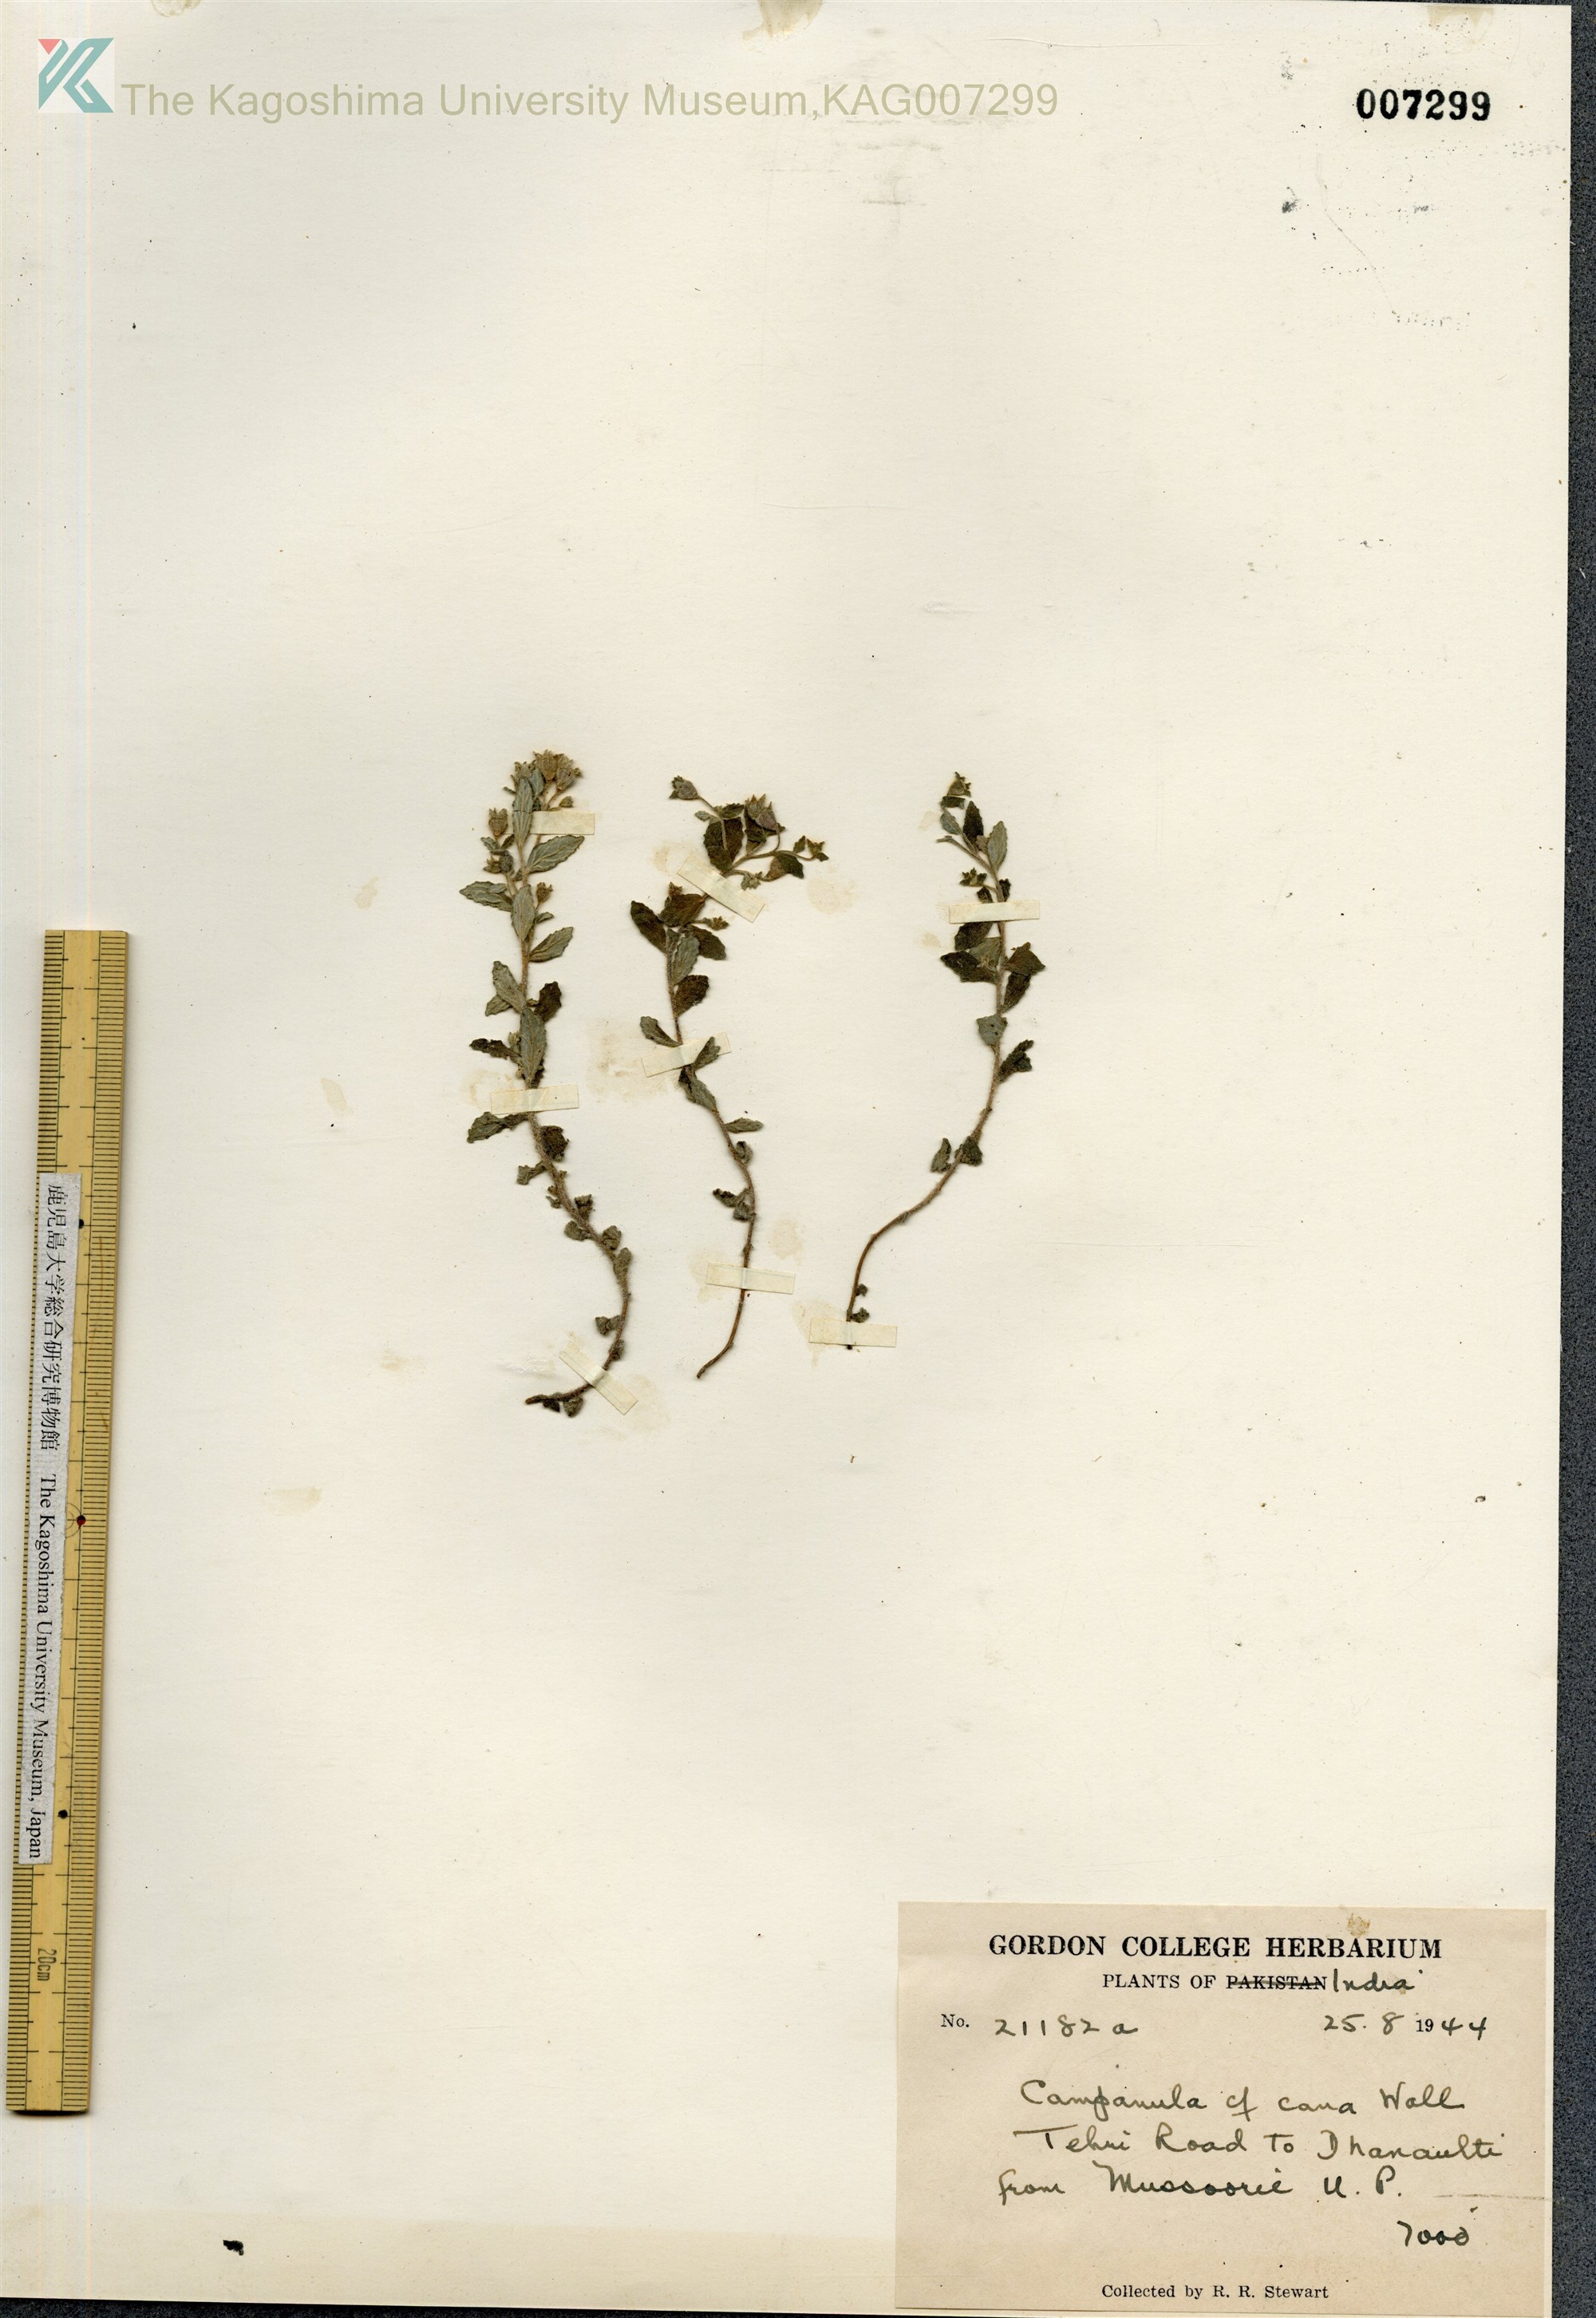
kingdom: Plantae
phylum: Tracheophyta
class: Magnoliopsida
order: Asterales
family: Campanulaceae
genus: Campanula
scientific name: Campanula cana
